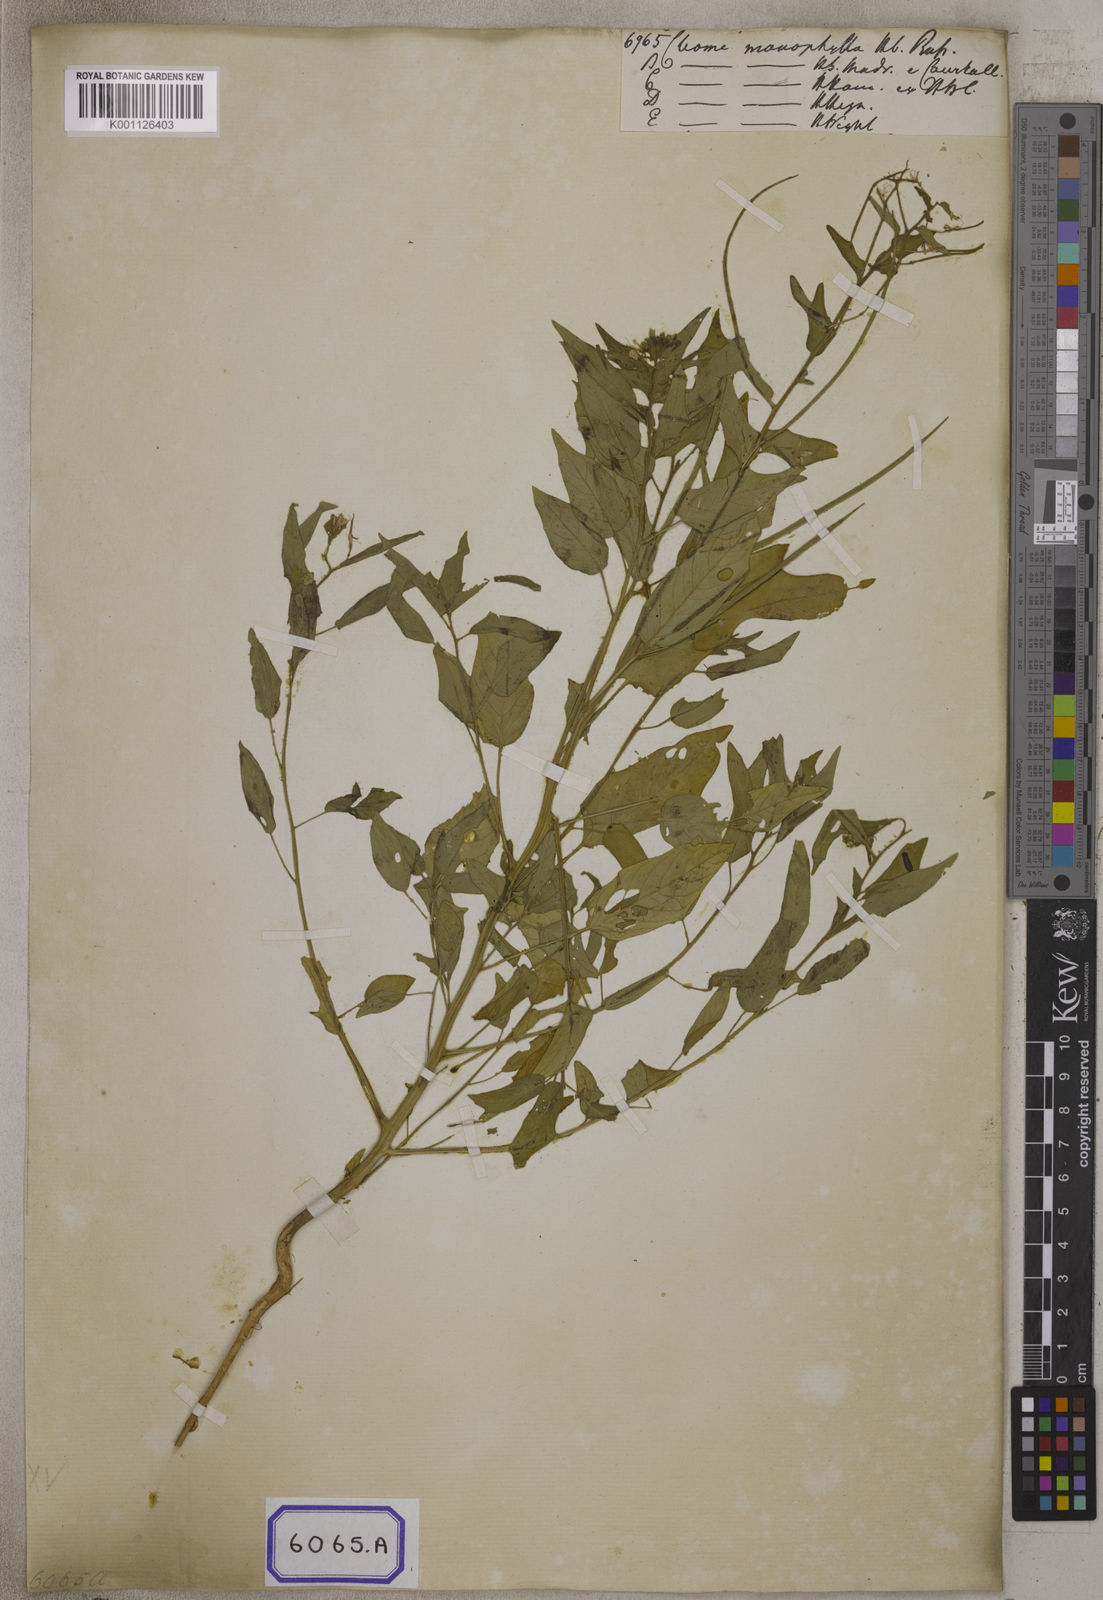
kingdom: Plantae
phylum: Tracheophyta
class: Magnoliopsida
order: Brassicales
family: Cleomaceae
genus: Cleome
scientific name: Cleome
